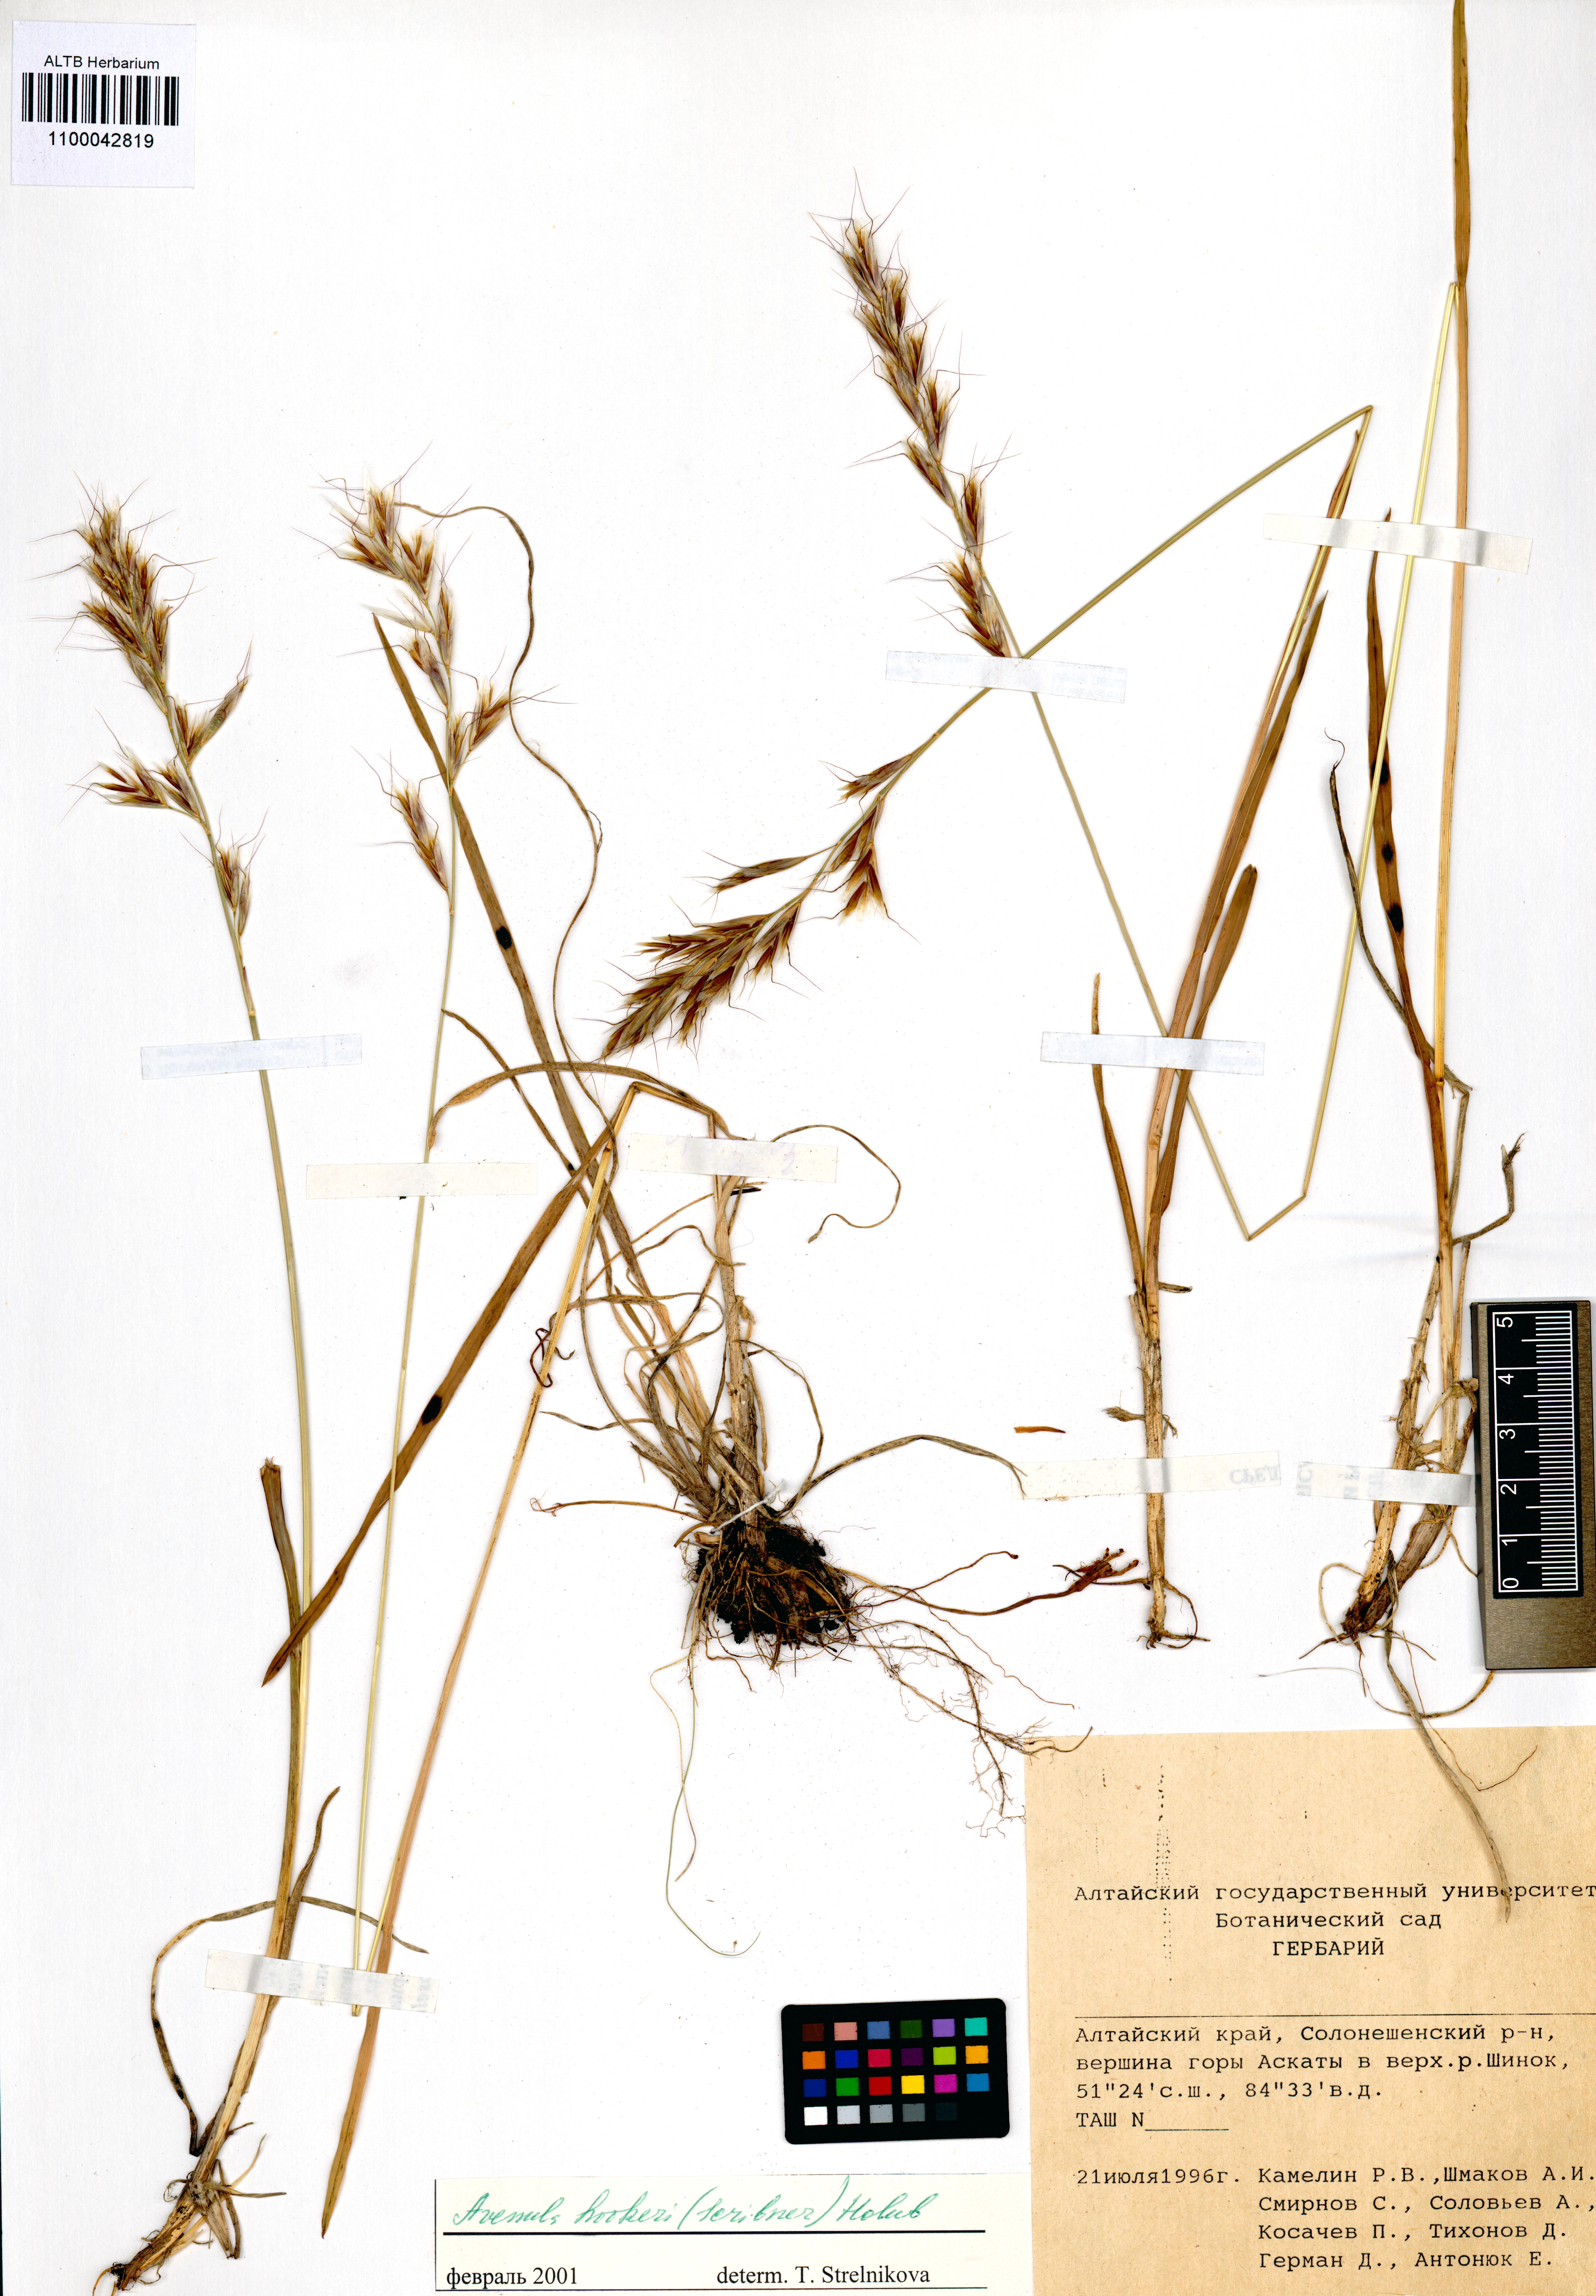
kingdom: Plantae
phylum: Tracheophyta
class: Liliopsida
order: Poales
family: Poaceae
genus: Helictochloa
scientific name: Helictochloa hookeri
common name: Hooker's alpine oatgrass
